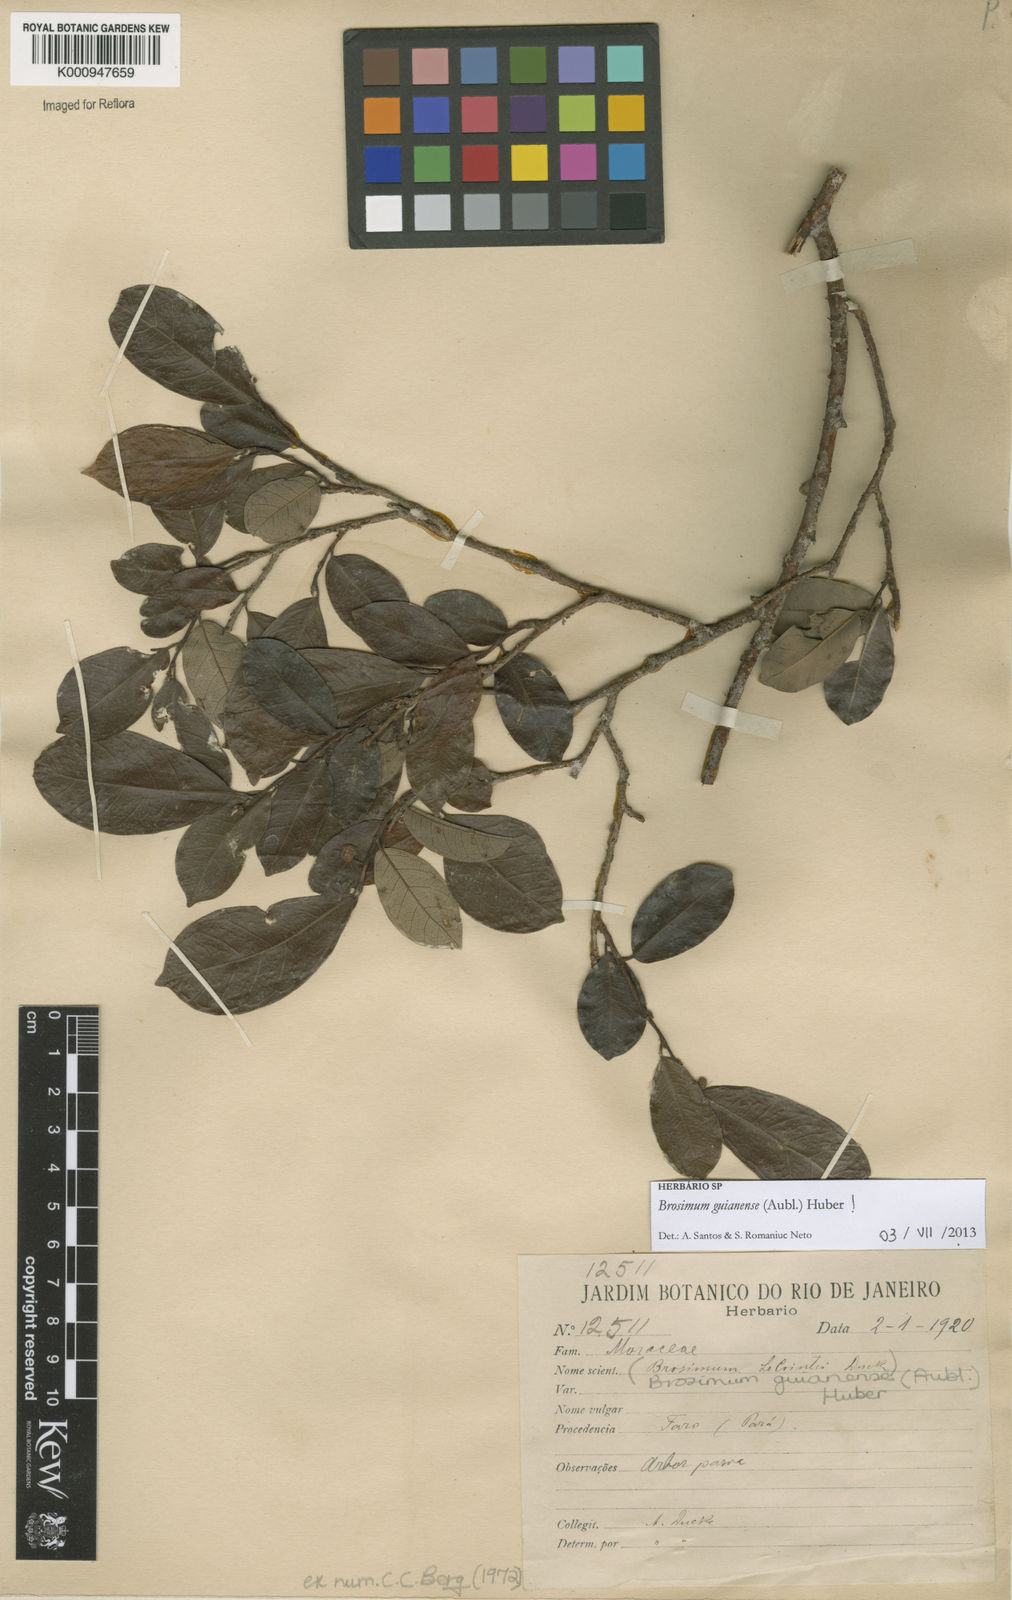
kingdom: Plantae
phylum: Tracheophyta
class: Magnoliopsida
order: Rosales
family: Moraceae
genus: Brosimum
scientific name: Brosimum
